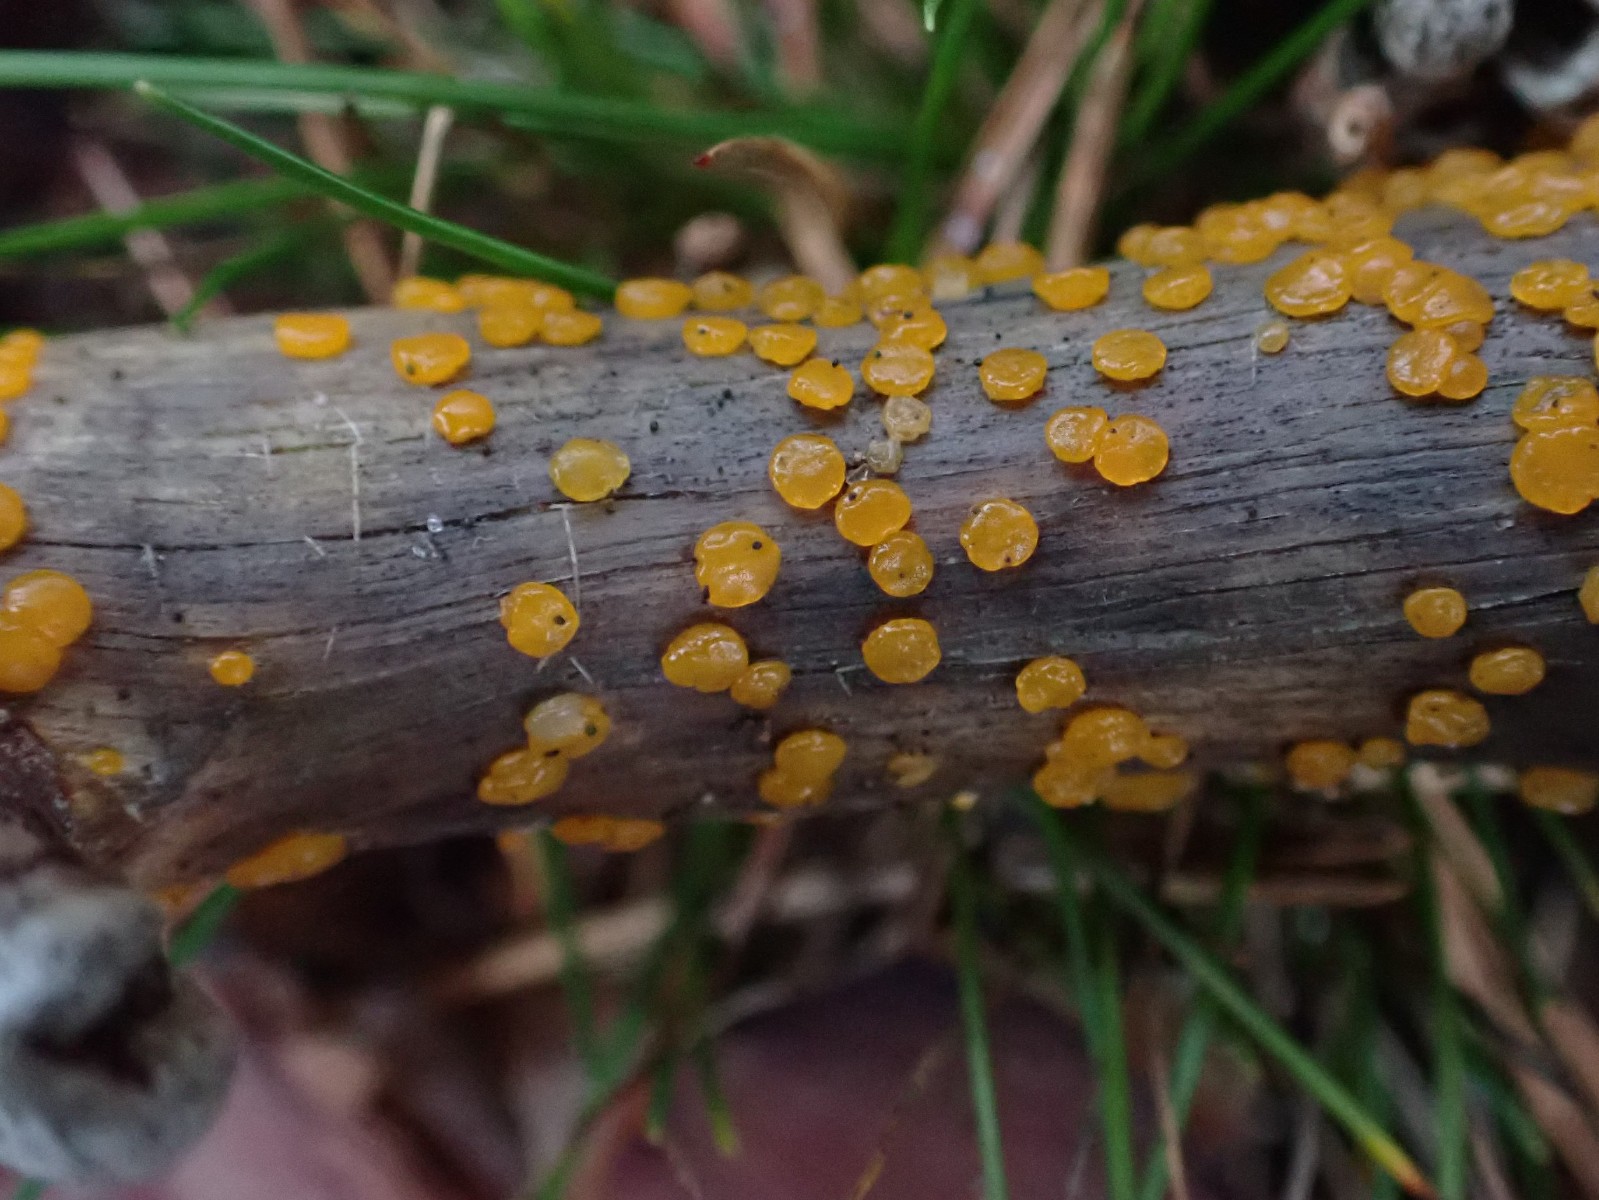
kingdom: Fungi
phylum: Basidiomycota
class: Dacrymycetes
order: Dacrymycetales
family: Dacrymycetaceae
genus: Dacrymyces
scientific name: Dacrymyces
